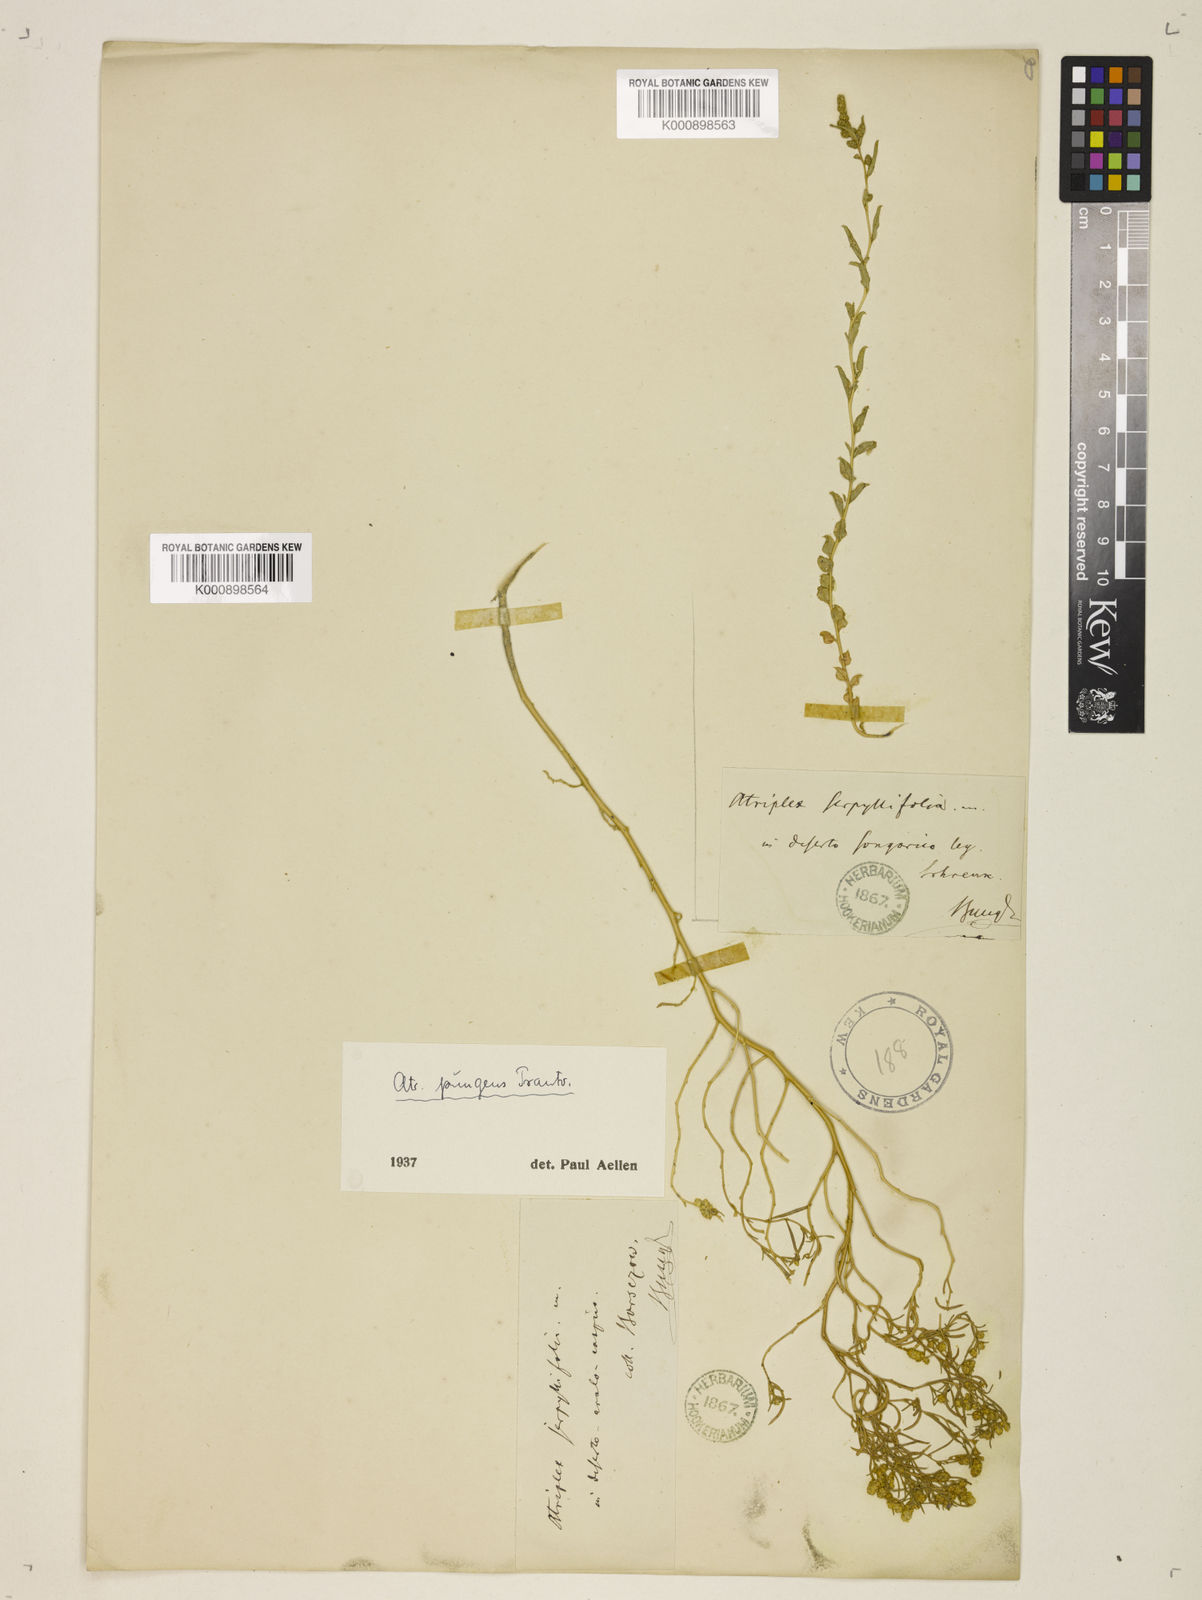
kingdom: Plantae
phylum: Tracheophyta
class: Magnoliopsida
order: Caryophyllales
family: Amaranthaceae
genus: Atriplex
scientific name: Atriplex pungens
